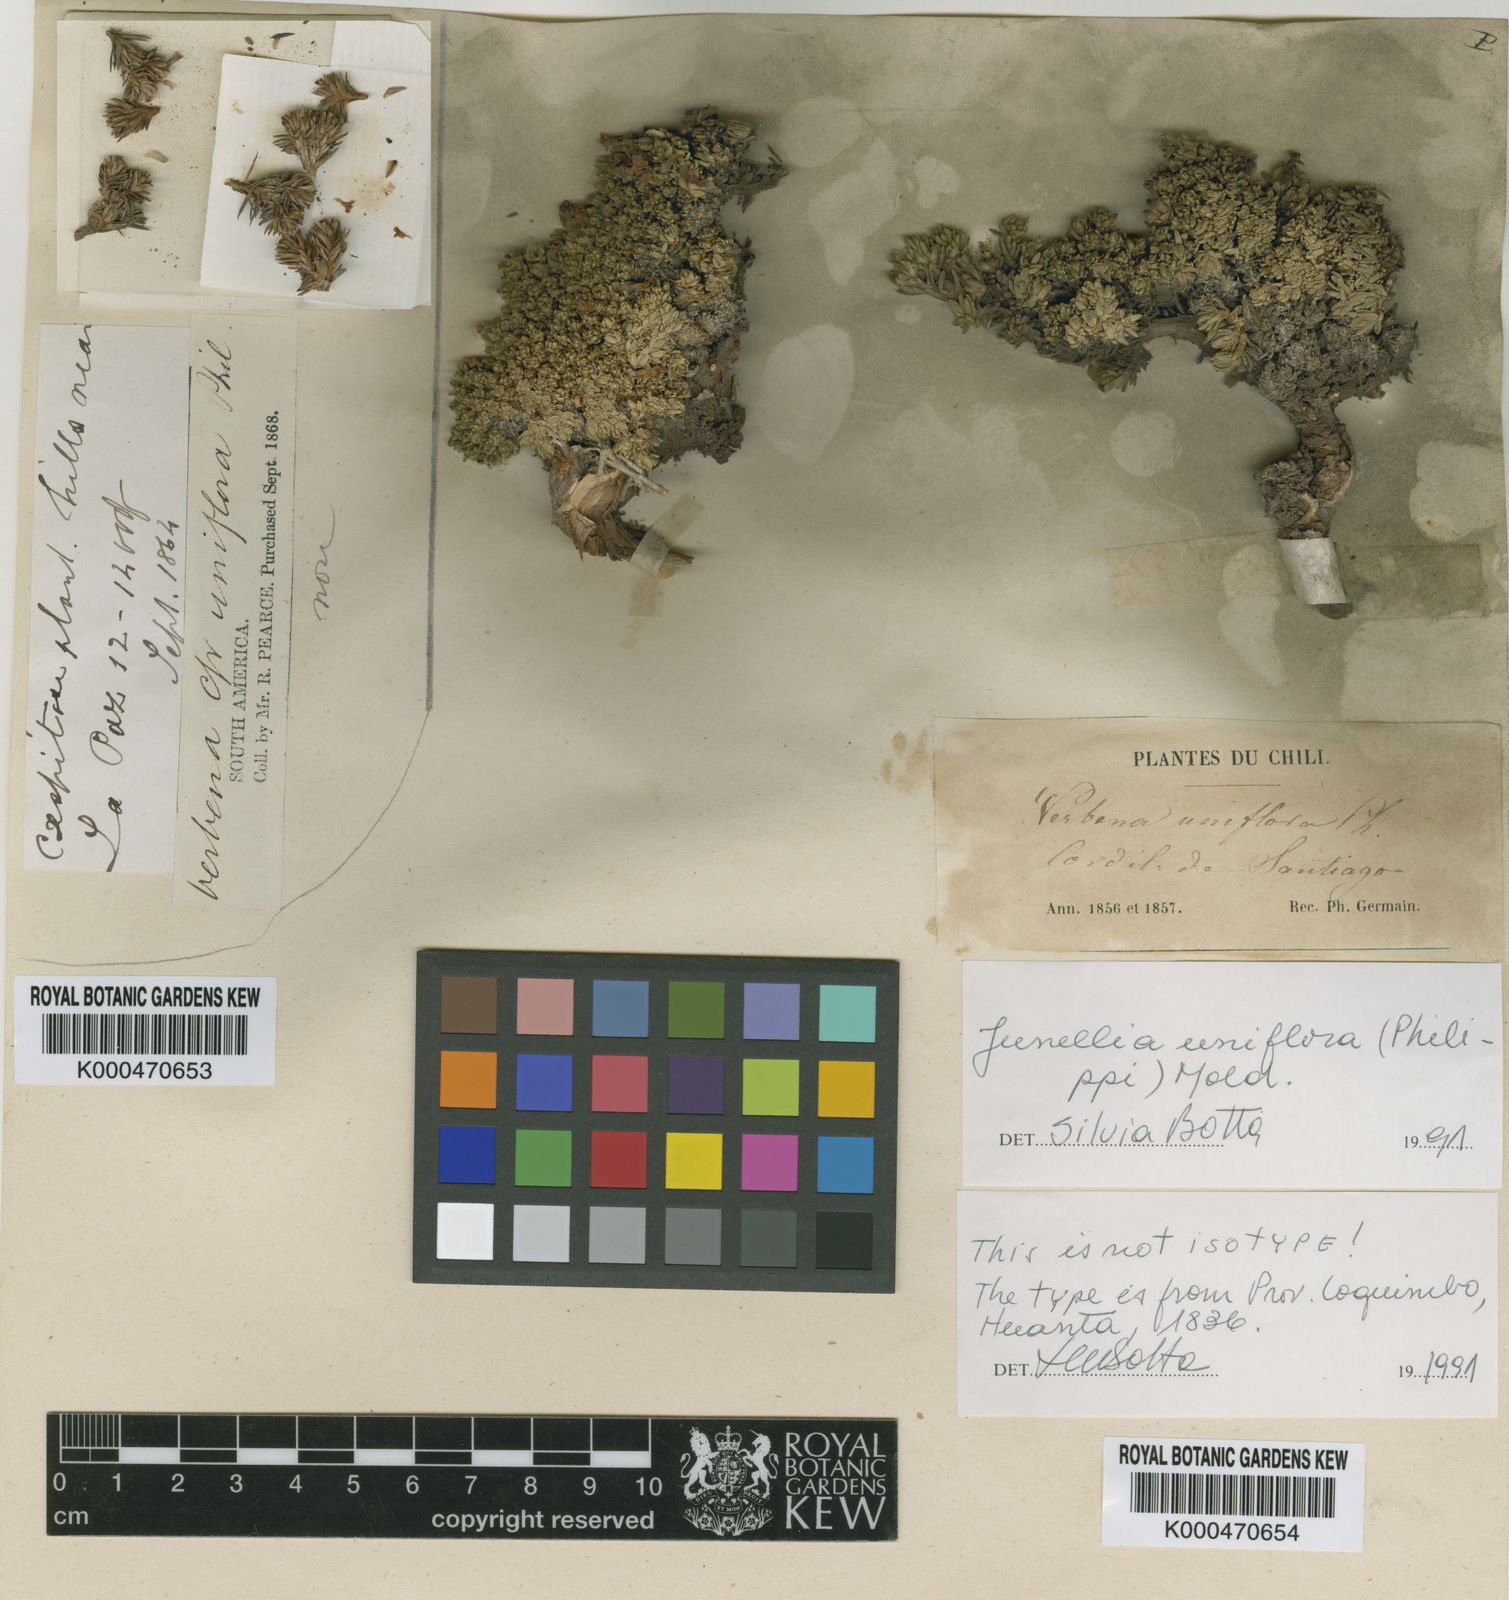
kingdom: Plantae
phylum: Tracheophyta
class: Magnoliopsida
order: Lamiales
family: Verbenaceae
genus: Junellia
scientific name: Junellia uniflora
